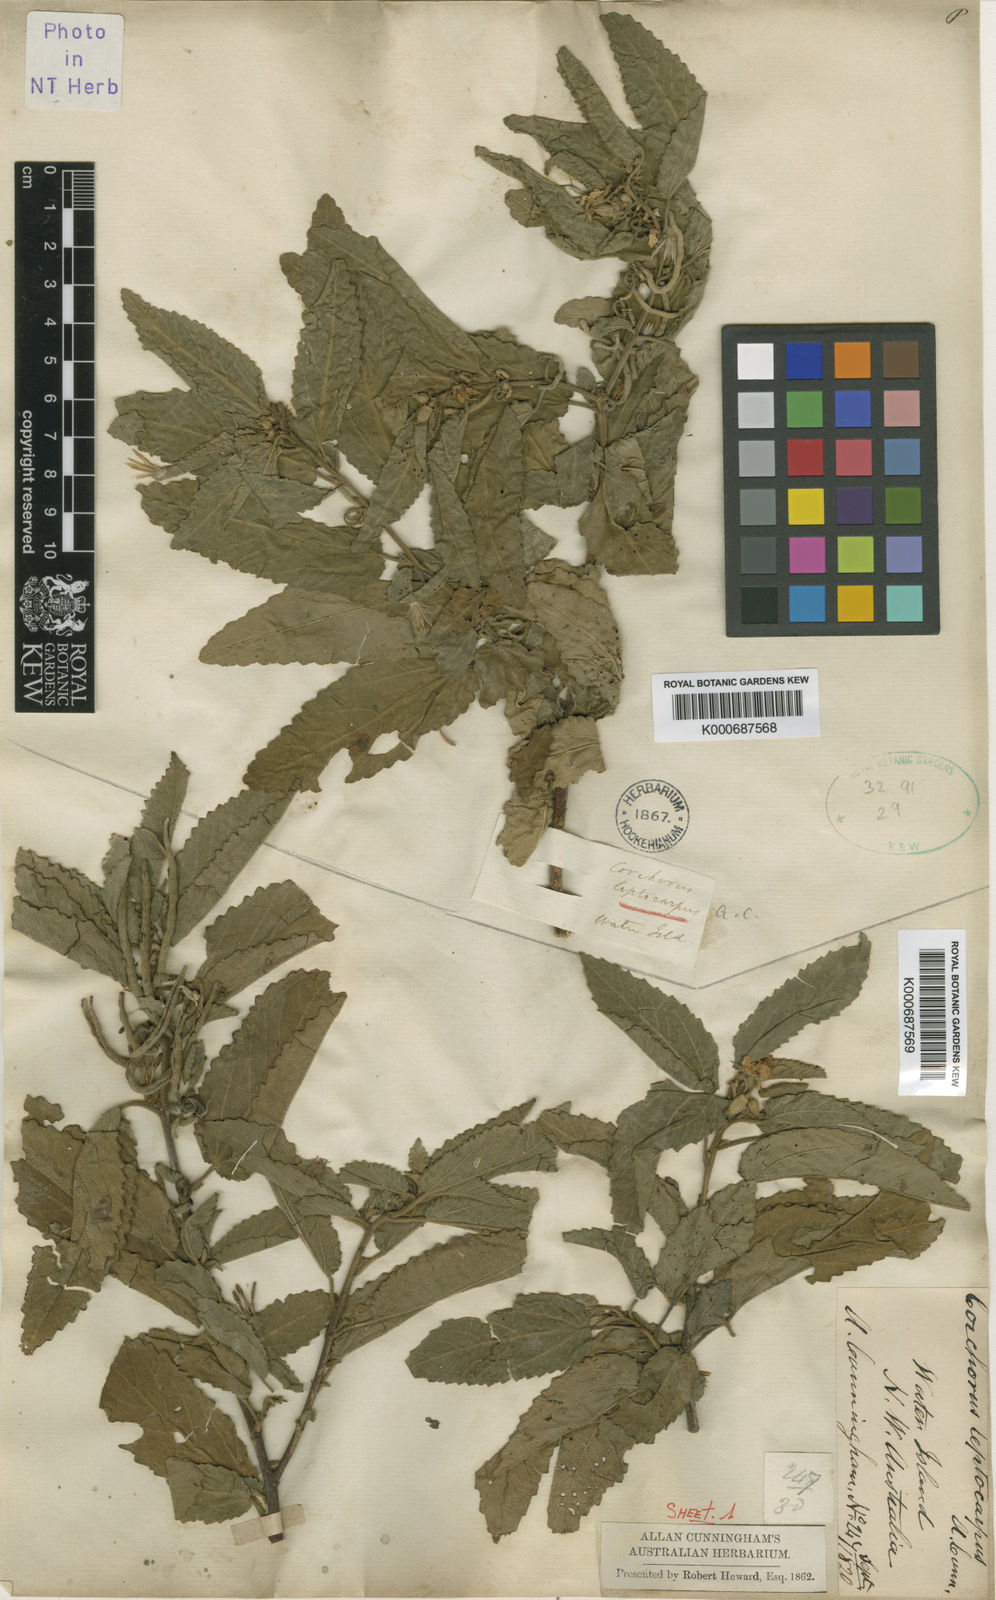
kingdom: Plantae
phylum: Tracheophyta
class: Magnoliopsida
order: Malvales
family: Malvaceae
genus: Corchorus
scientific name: Corchorus leptocarpus
